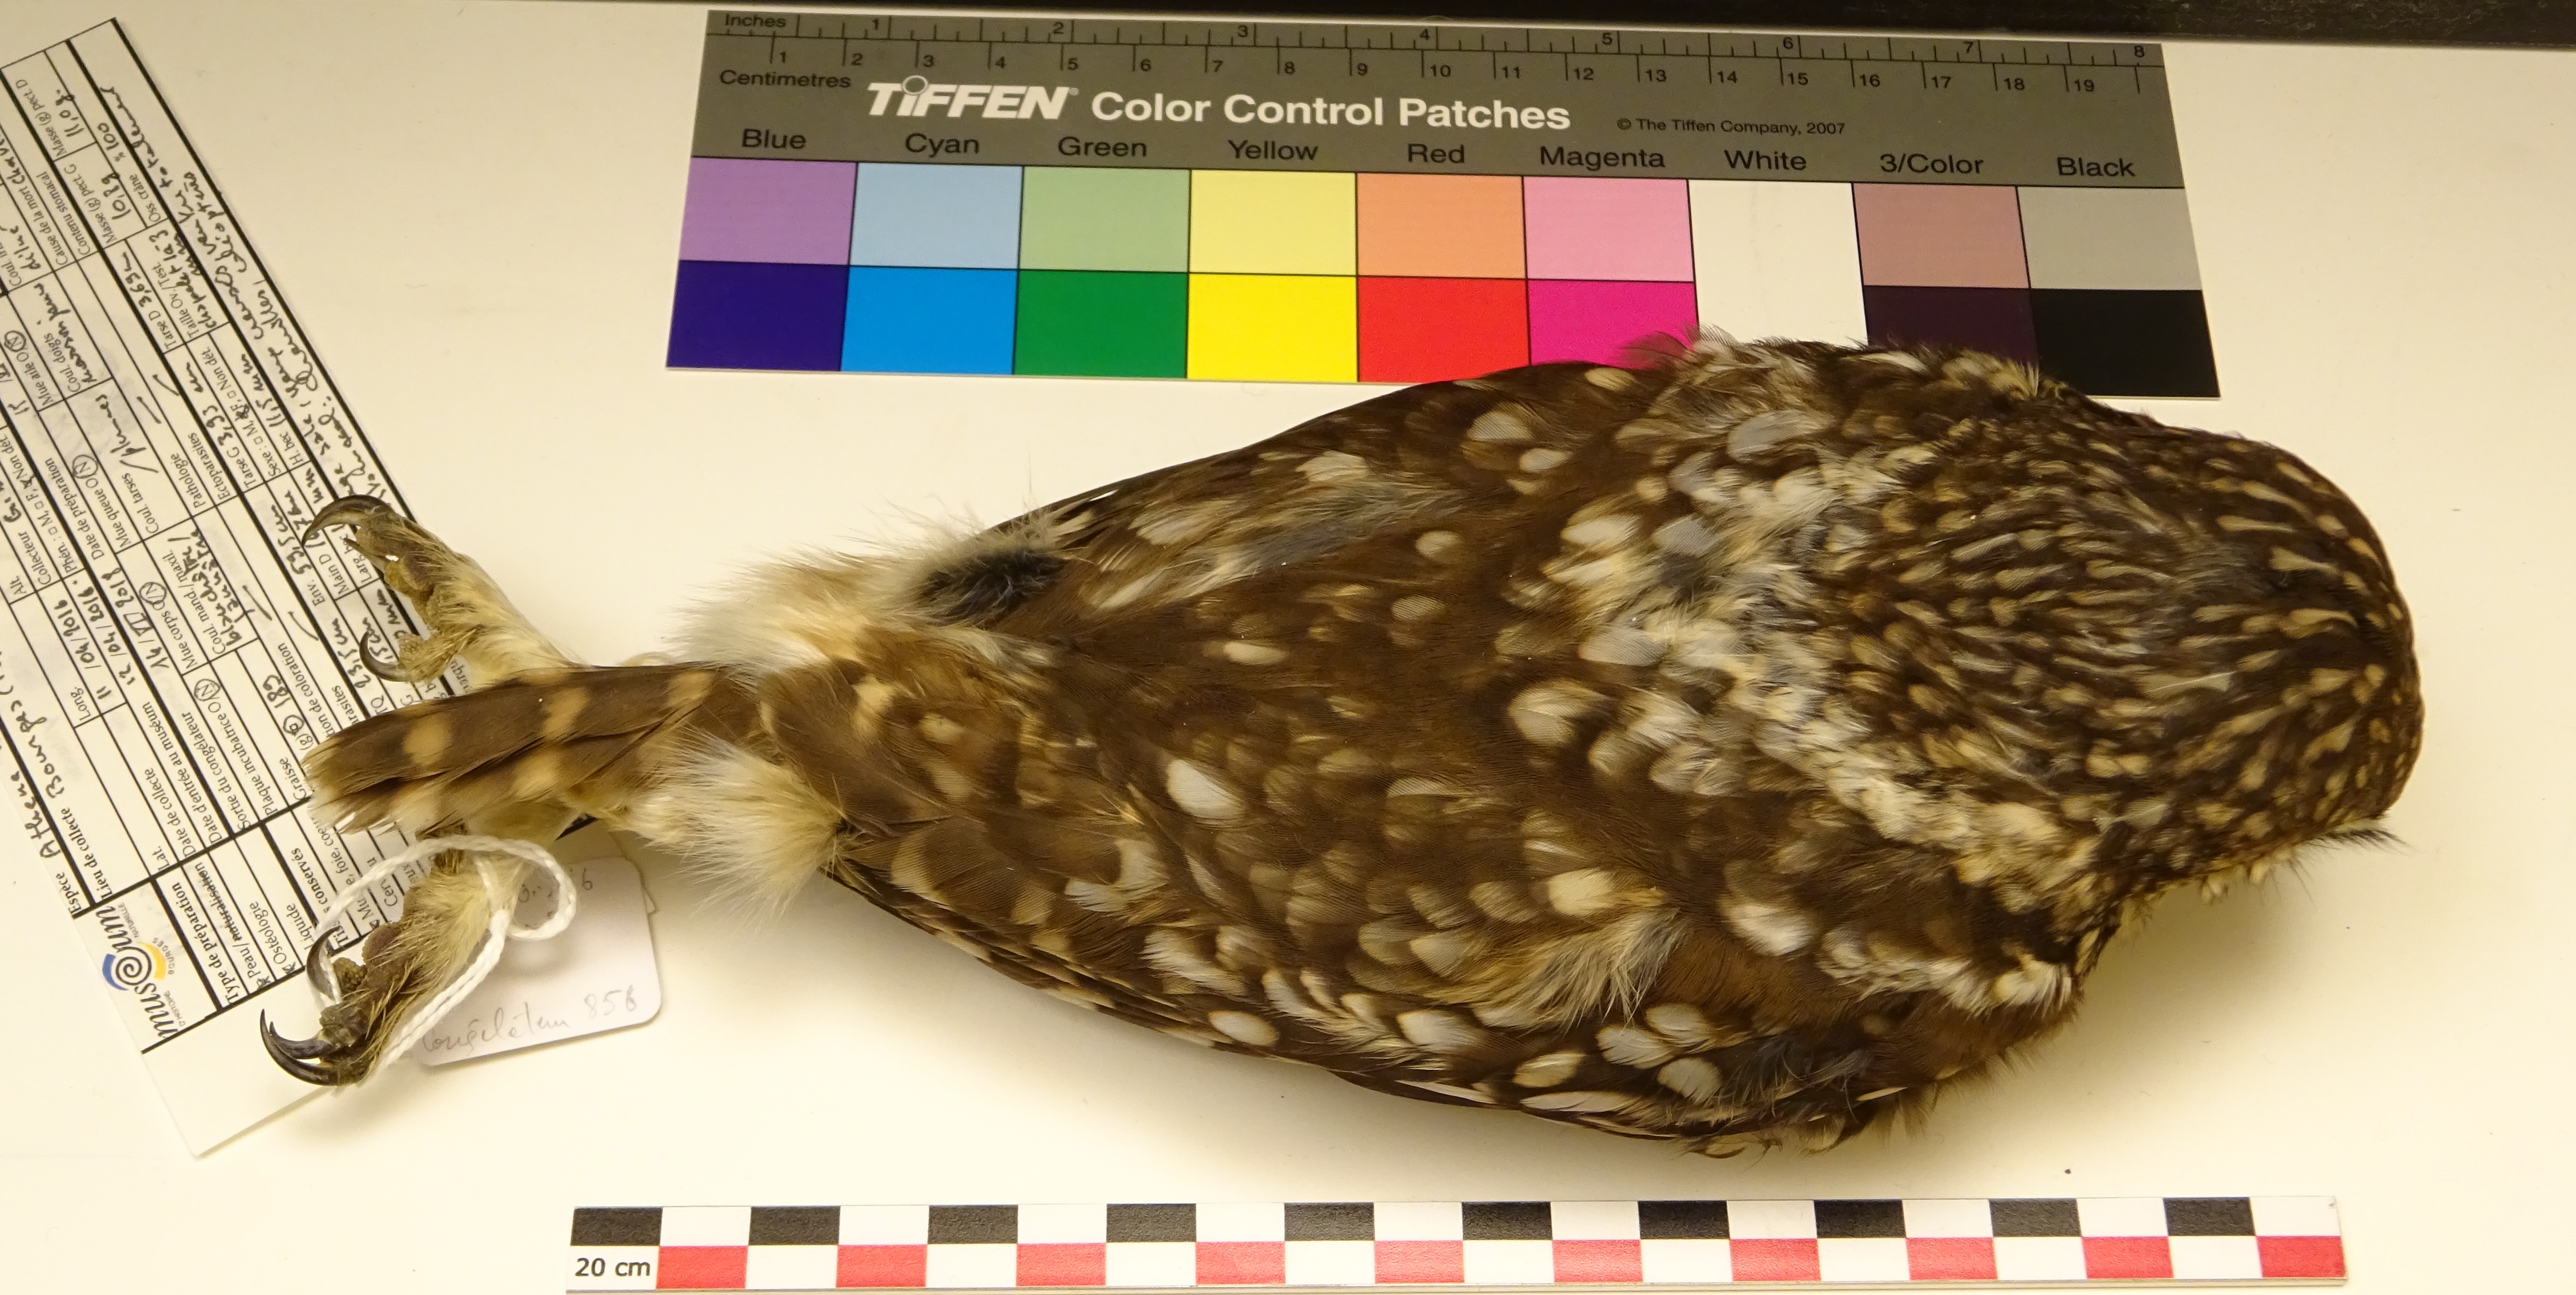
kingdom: Animalia
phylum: Chordata
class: Aves
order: Strigiformes
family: Strigidae
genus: Athene
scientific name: Athene noctua
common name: Little owl
